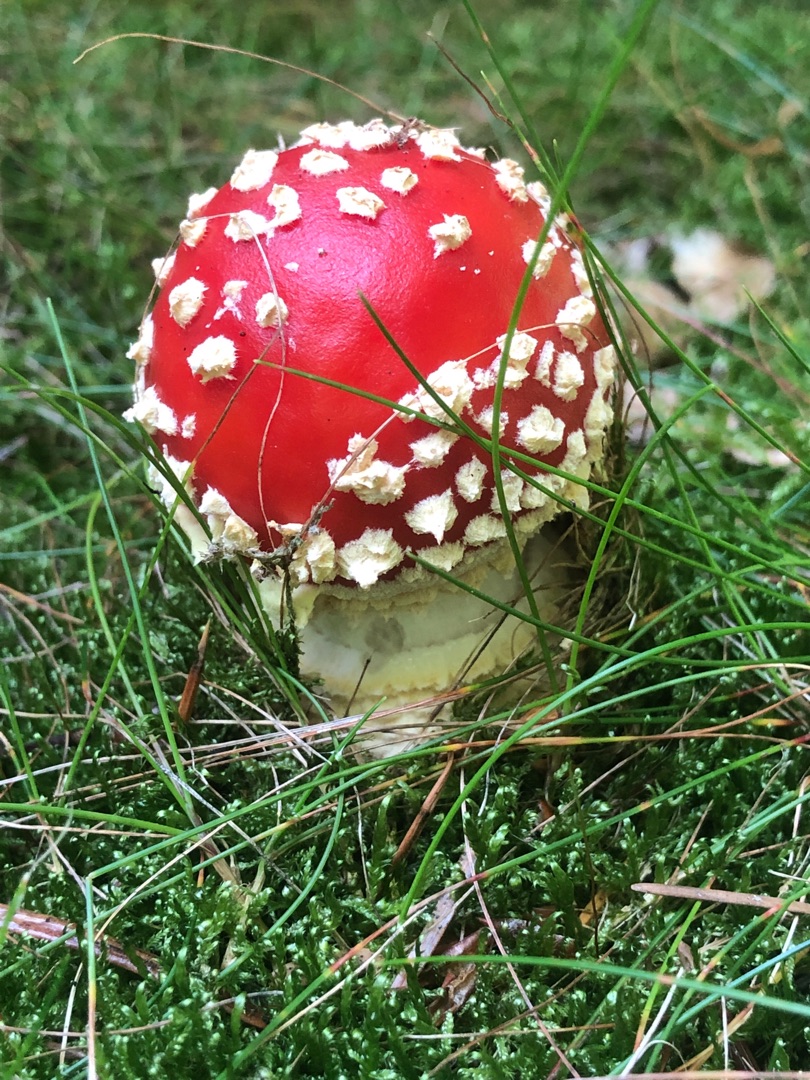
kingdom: Fungi
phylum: Basidiomycota
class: Agaricomycetes
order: Agaricales
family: Amanitaceae
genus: Amanita
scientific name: Amanita muscaria
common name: Rød fluesvamp
